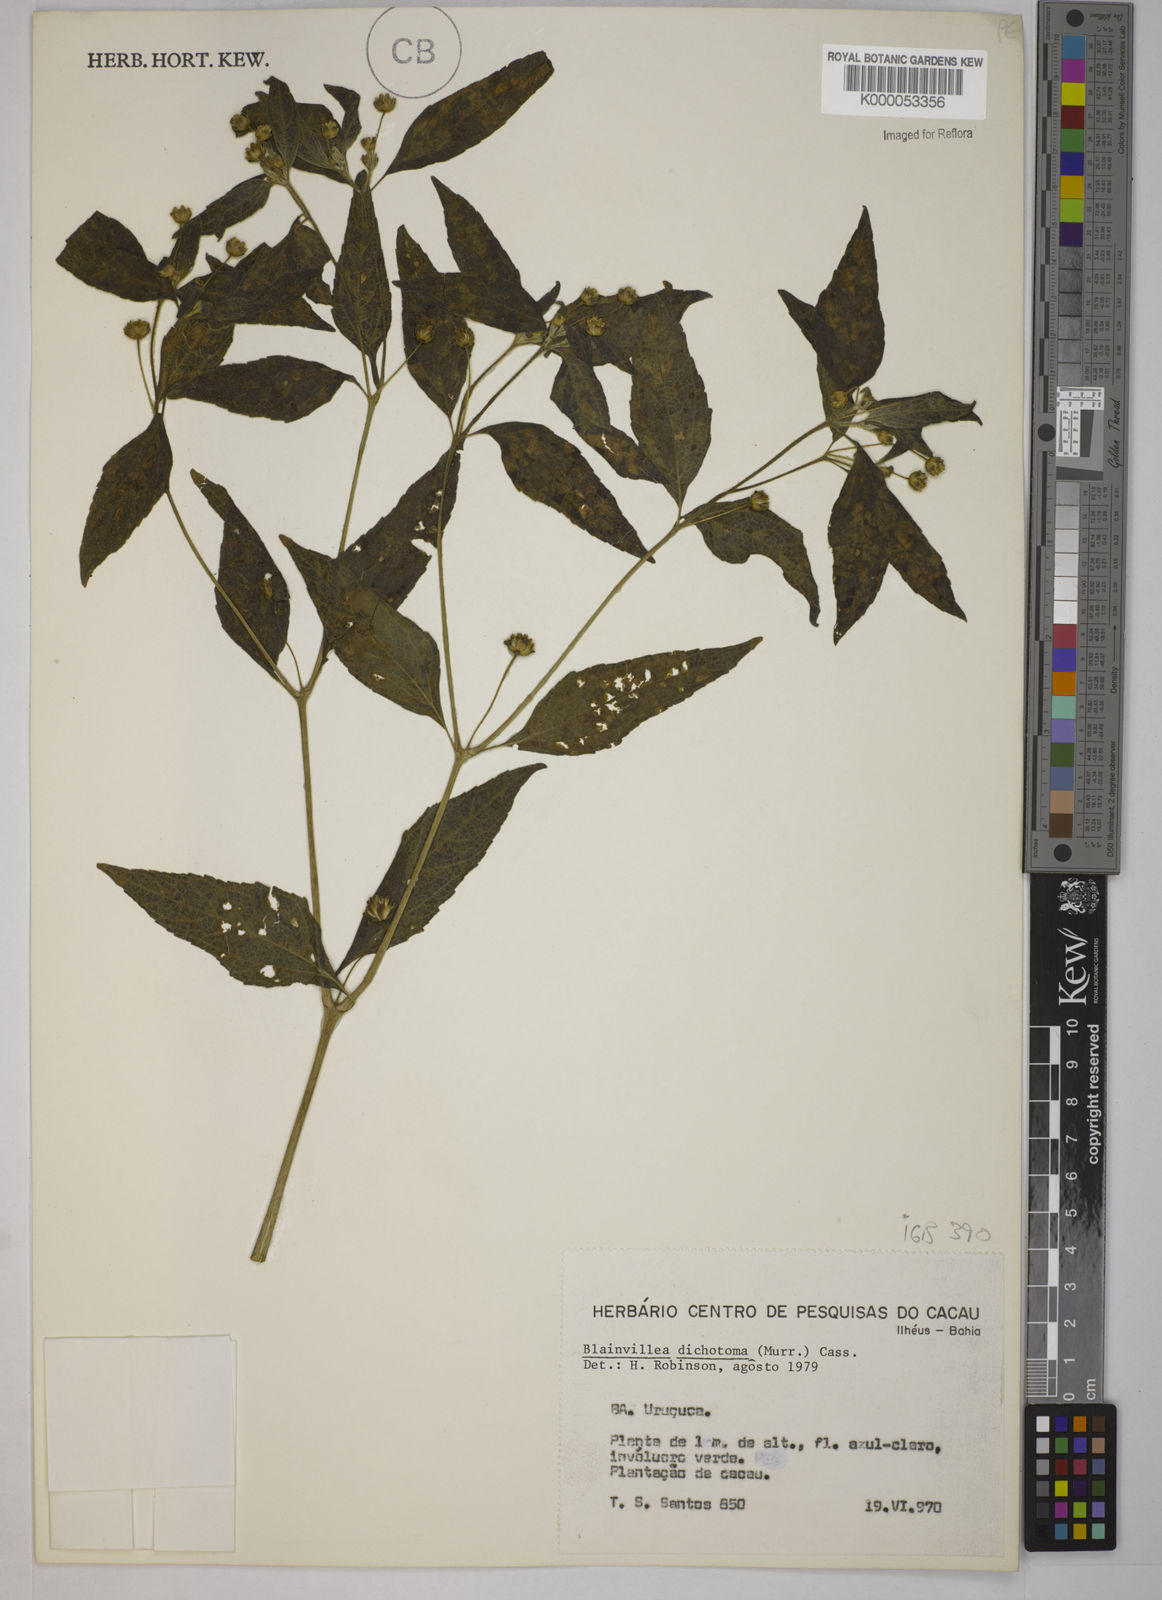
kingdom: Plantae
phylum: Tracheophyta
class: Magnoliopsida
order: Asterales
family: Asteraceae
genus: Blainvillea
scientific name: Blainvillea acmella
